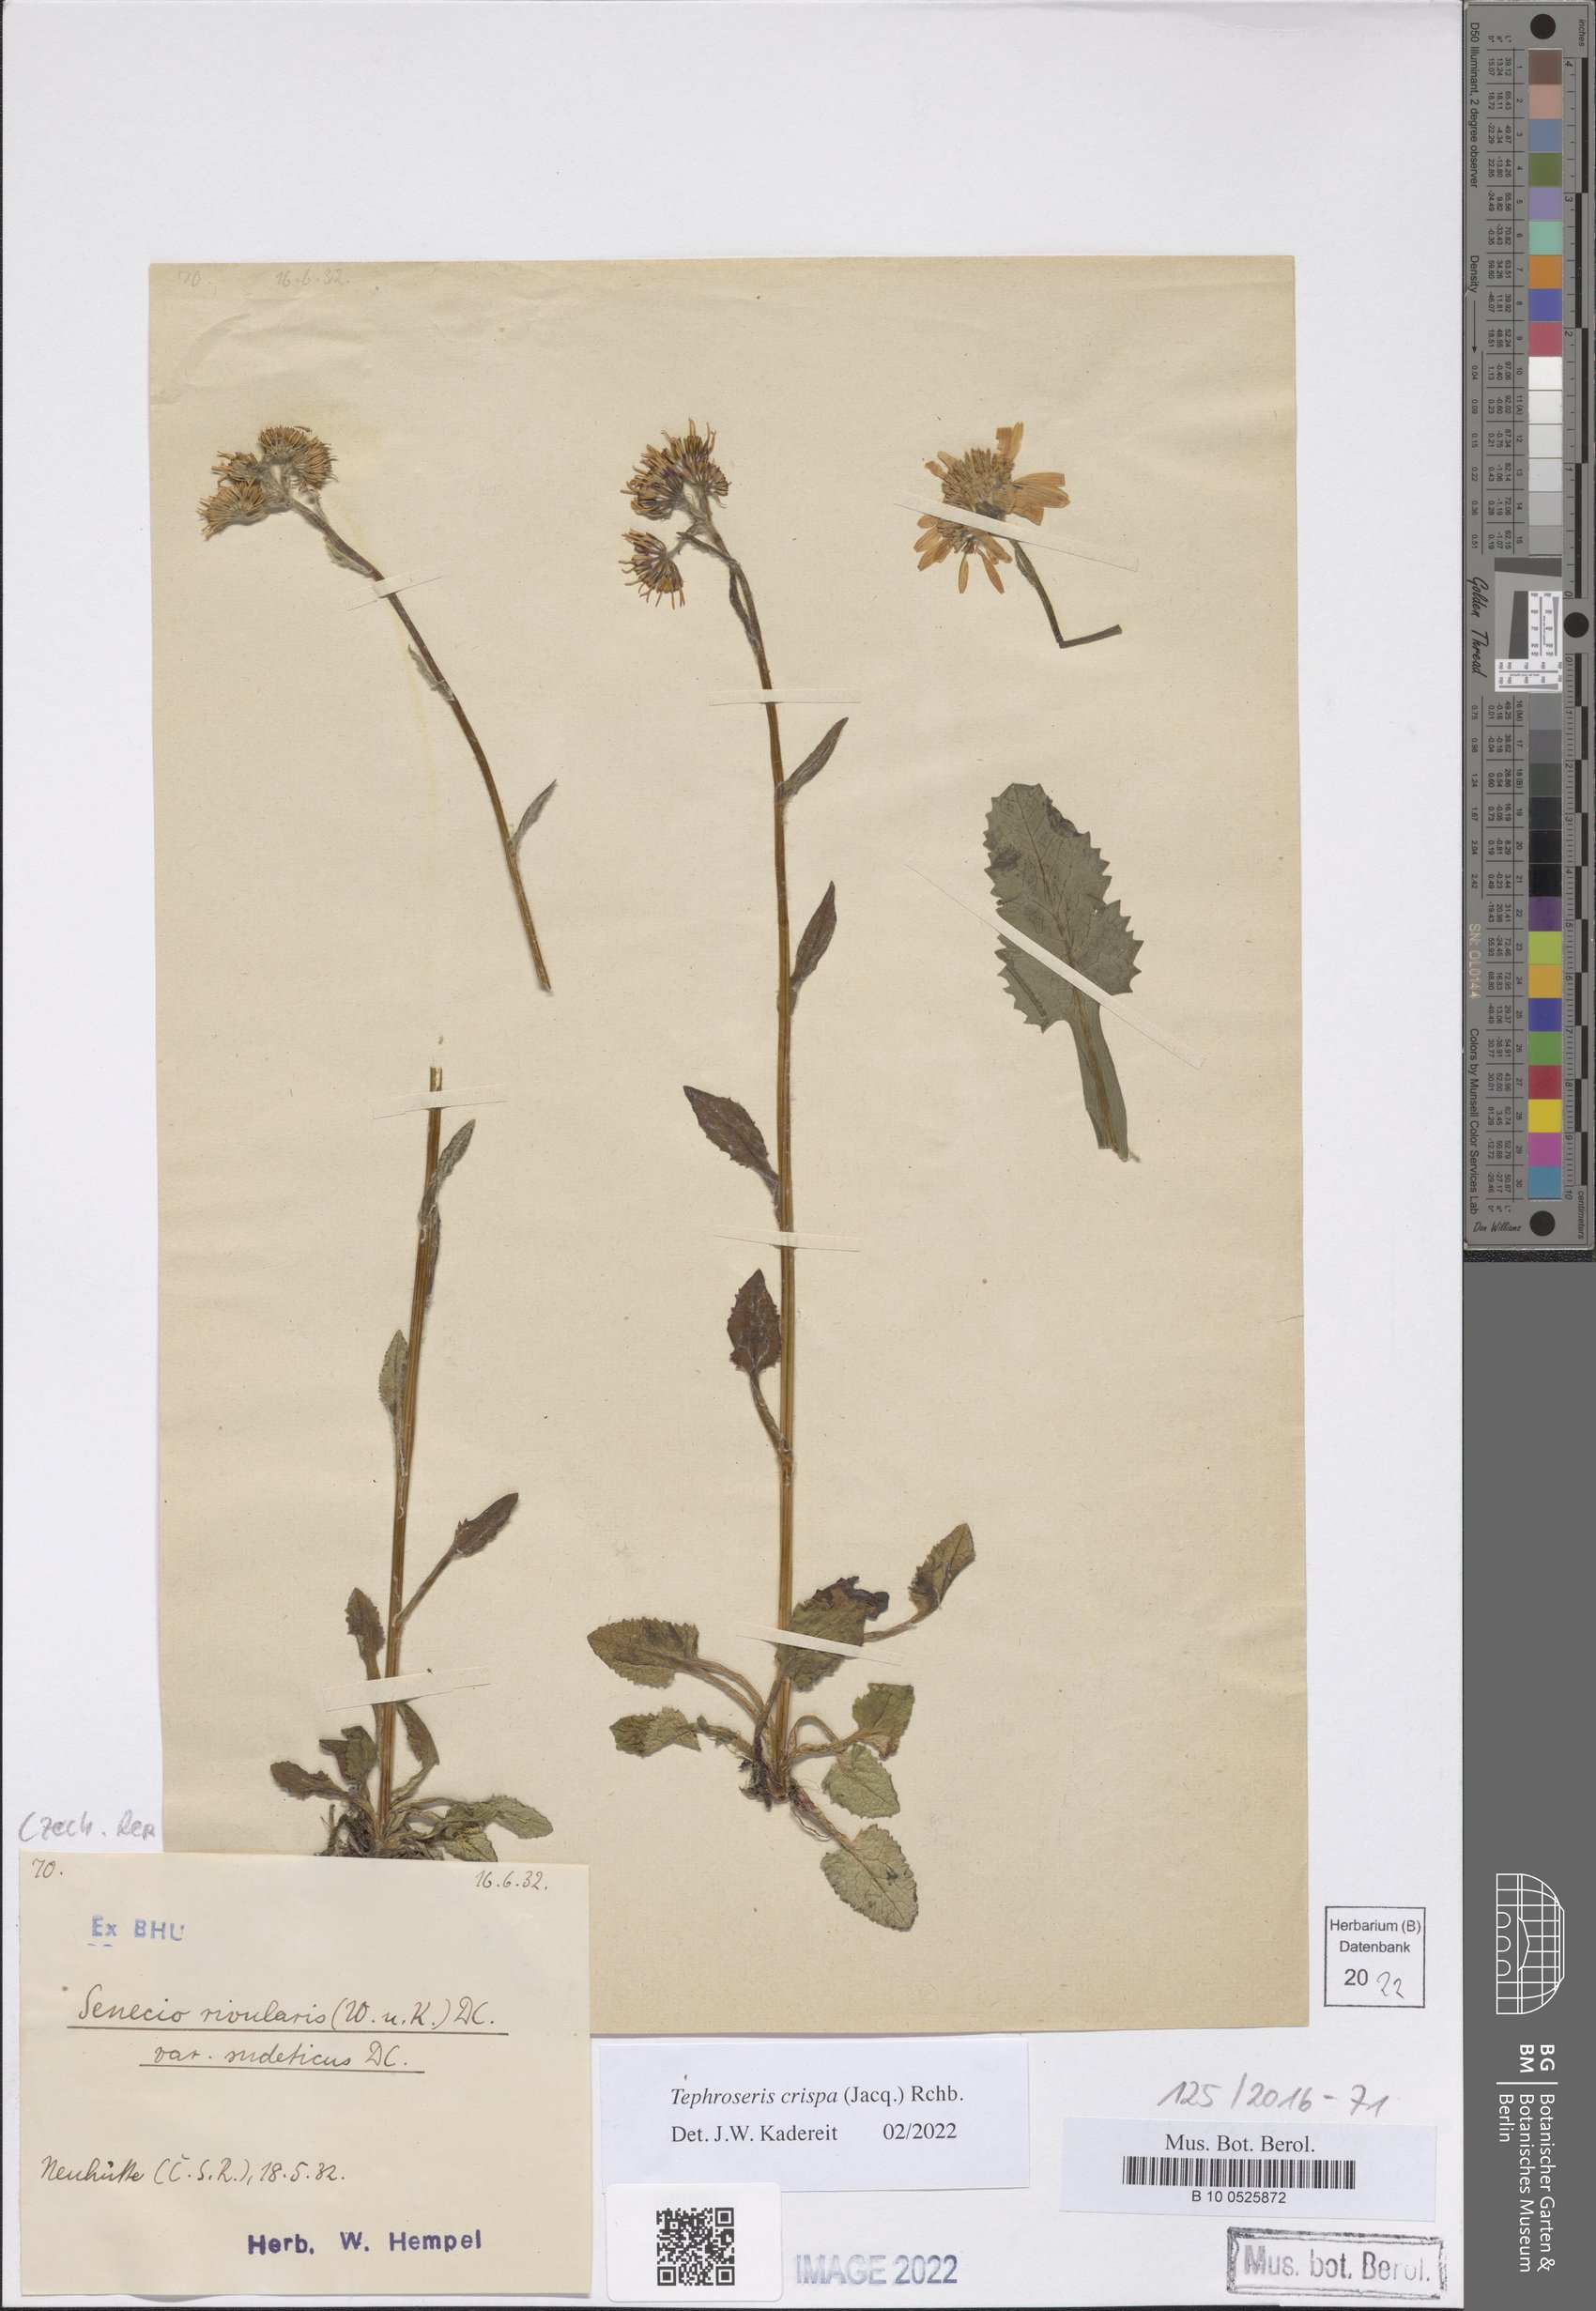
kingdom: Plantae
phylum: Tracheophyta
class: Magnoliopsida
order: Asterales
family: Asteraceae
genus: Tephroseris
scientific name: Tephroseris crispa
